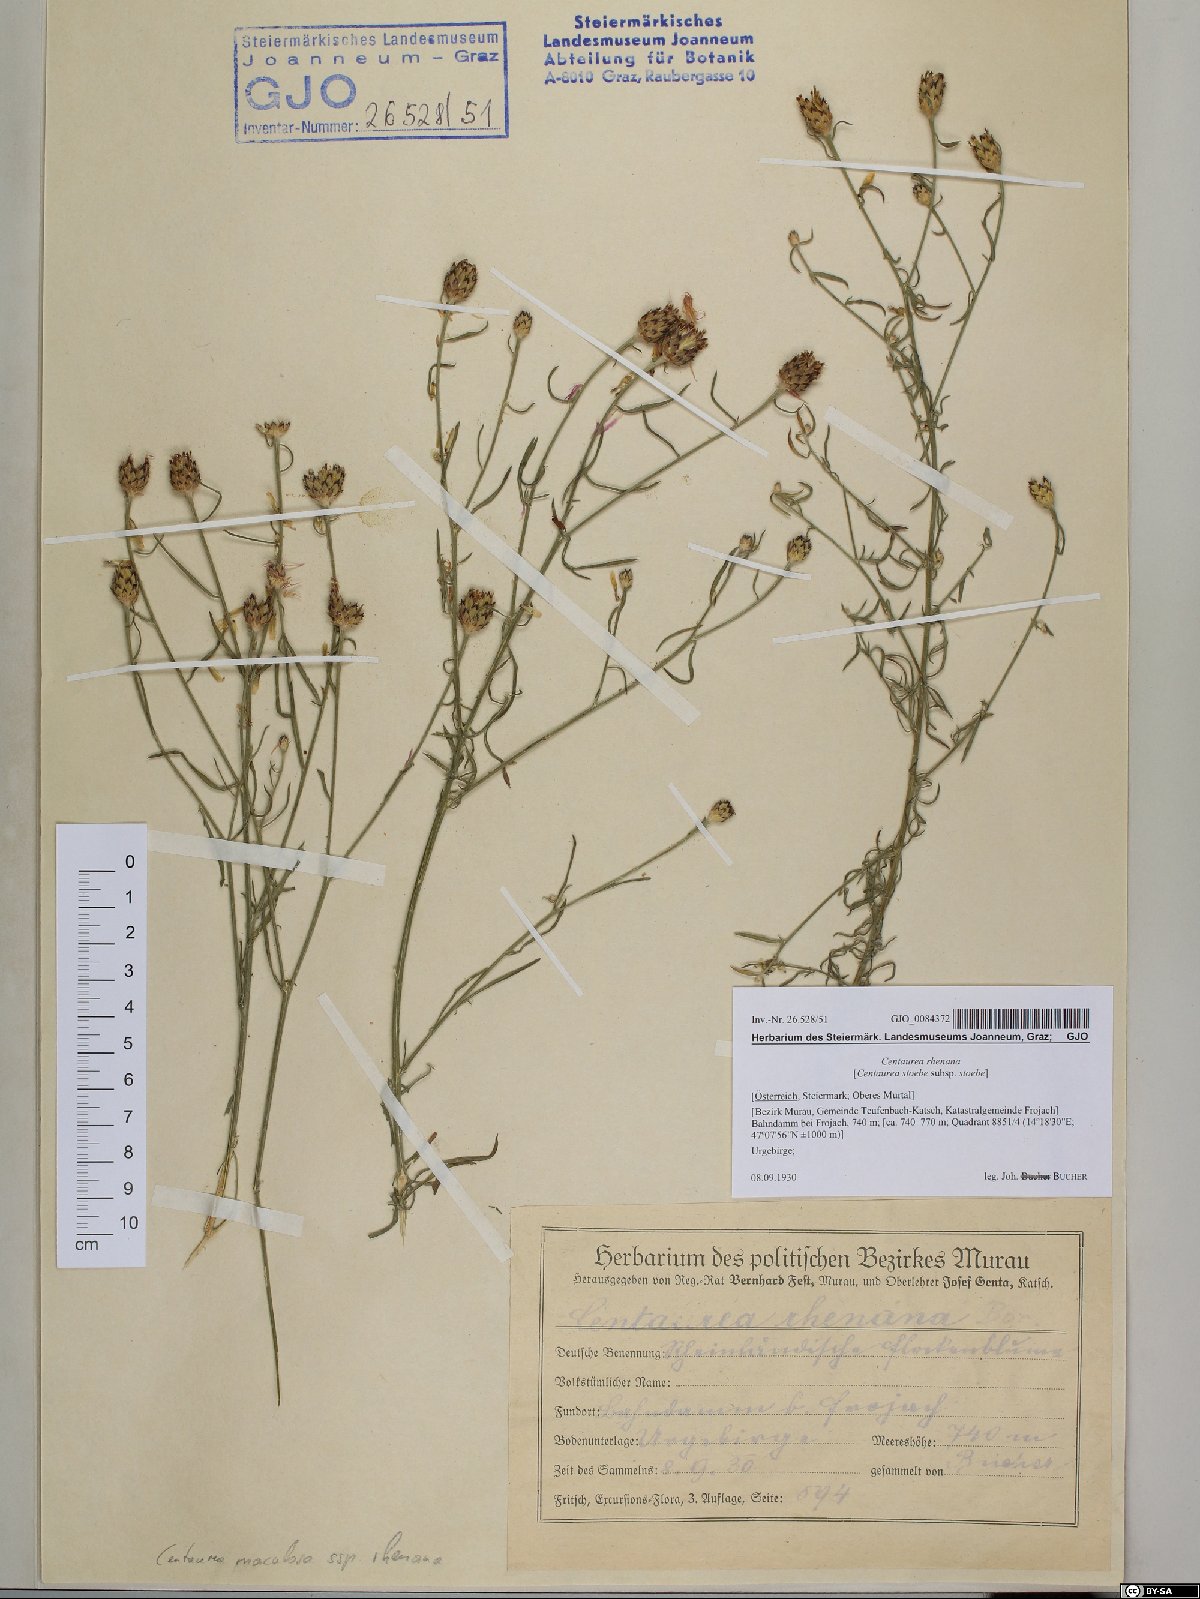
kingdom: Plantae
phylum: Tracheophyta
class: Magnoliopsida
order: Asterales
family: Asteraceae
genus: Centaurea
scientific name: Centaurea stoebe
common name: Spotted knapweed
